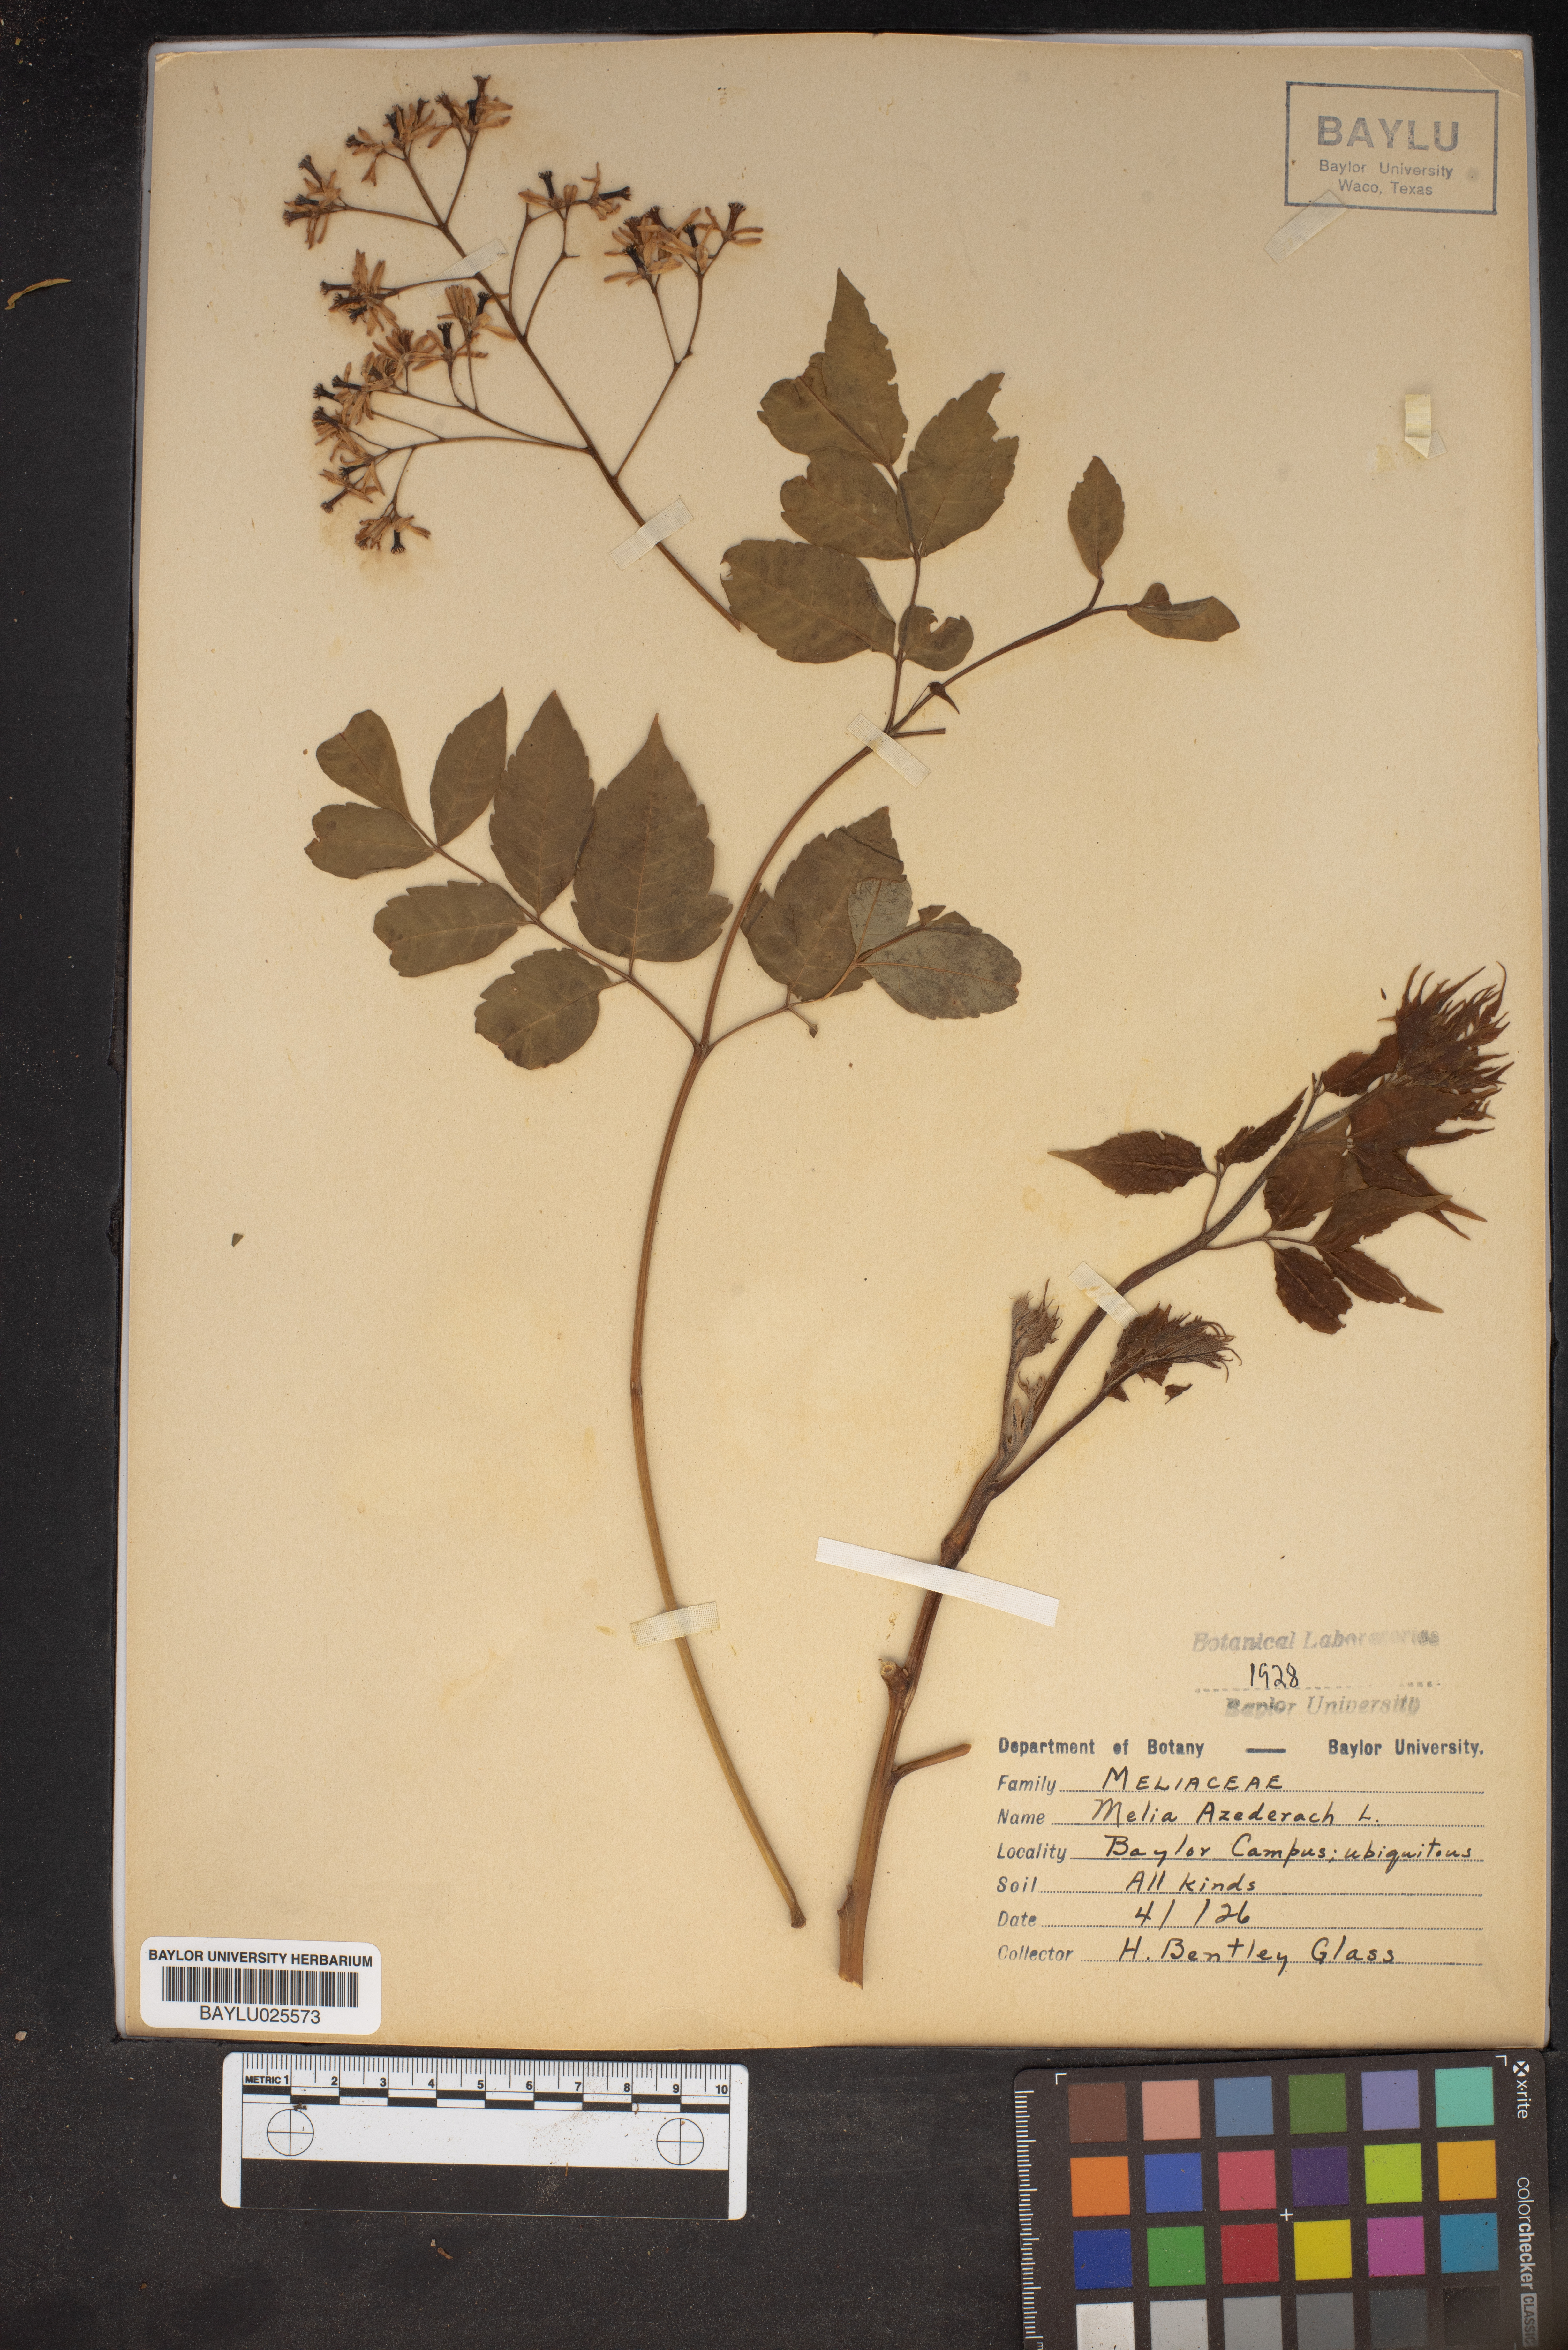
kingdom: Plantae
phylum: Tracheophyta
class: Magnoliopsida
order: Sapindales
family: Meliaceae
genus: Melia
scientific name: Melia azedarach
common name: Chinaberrytree
